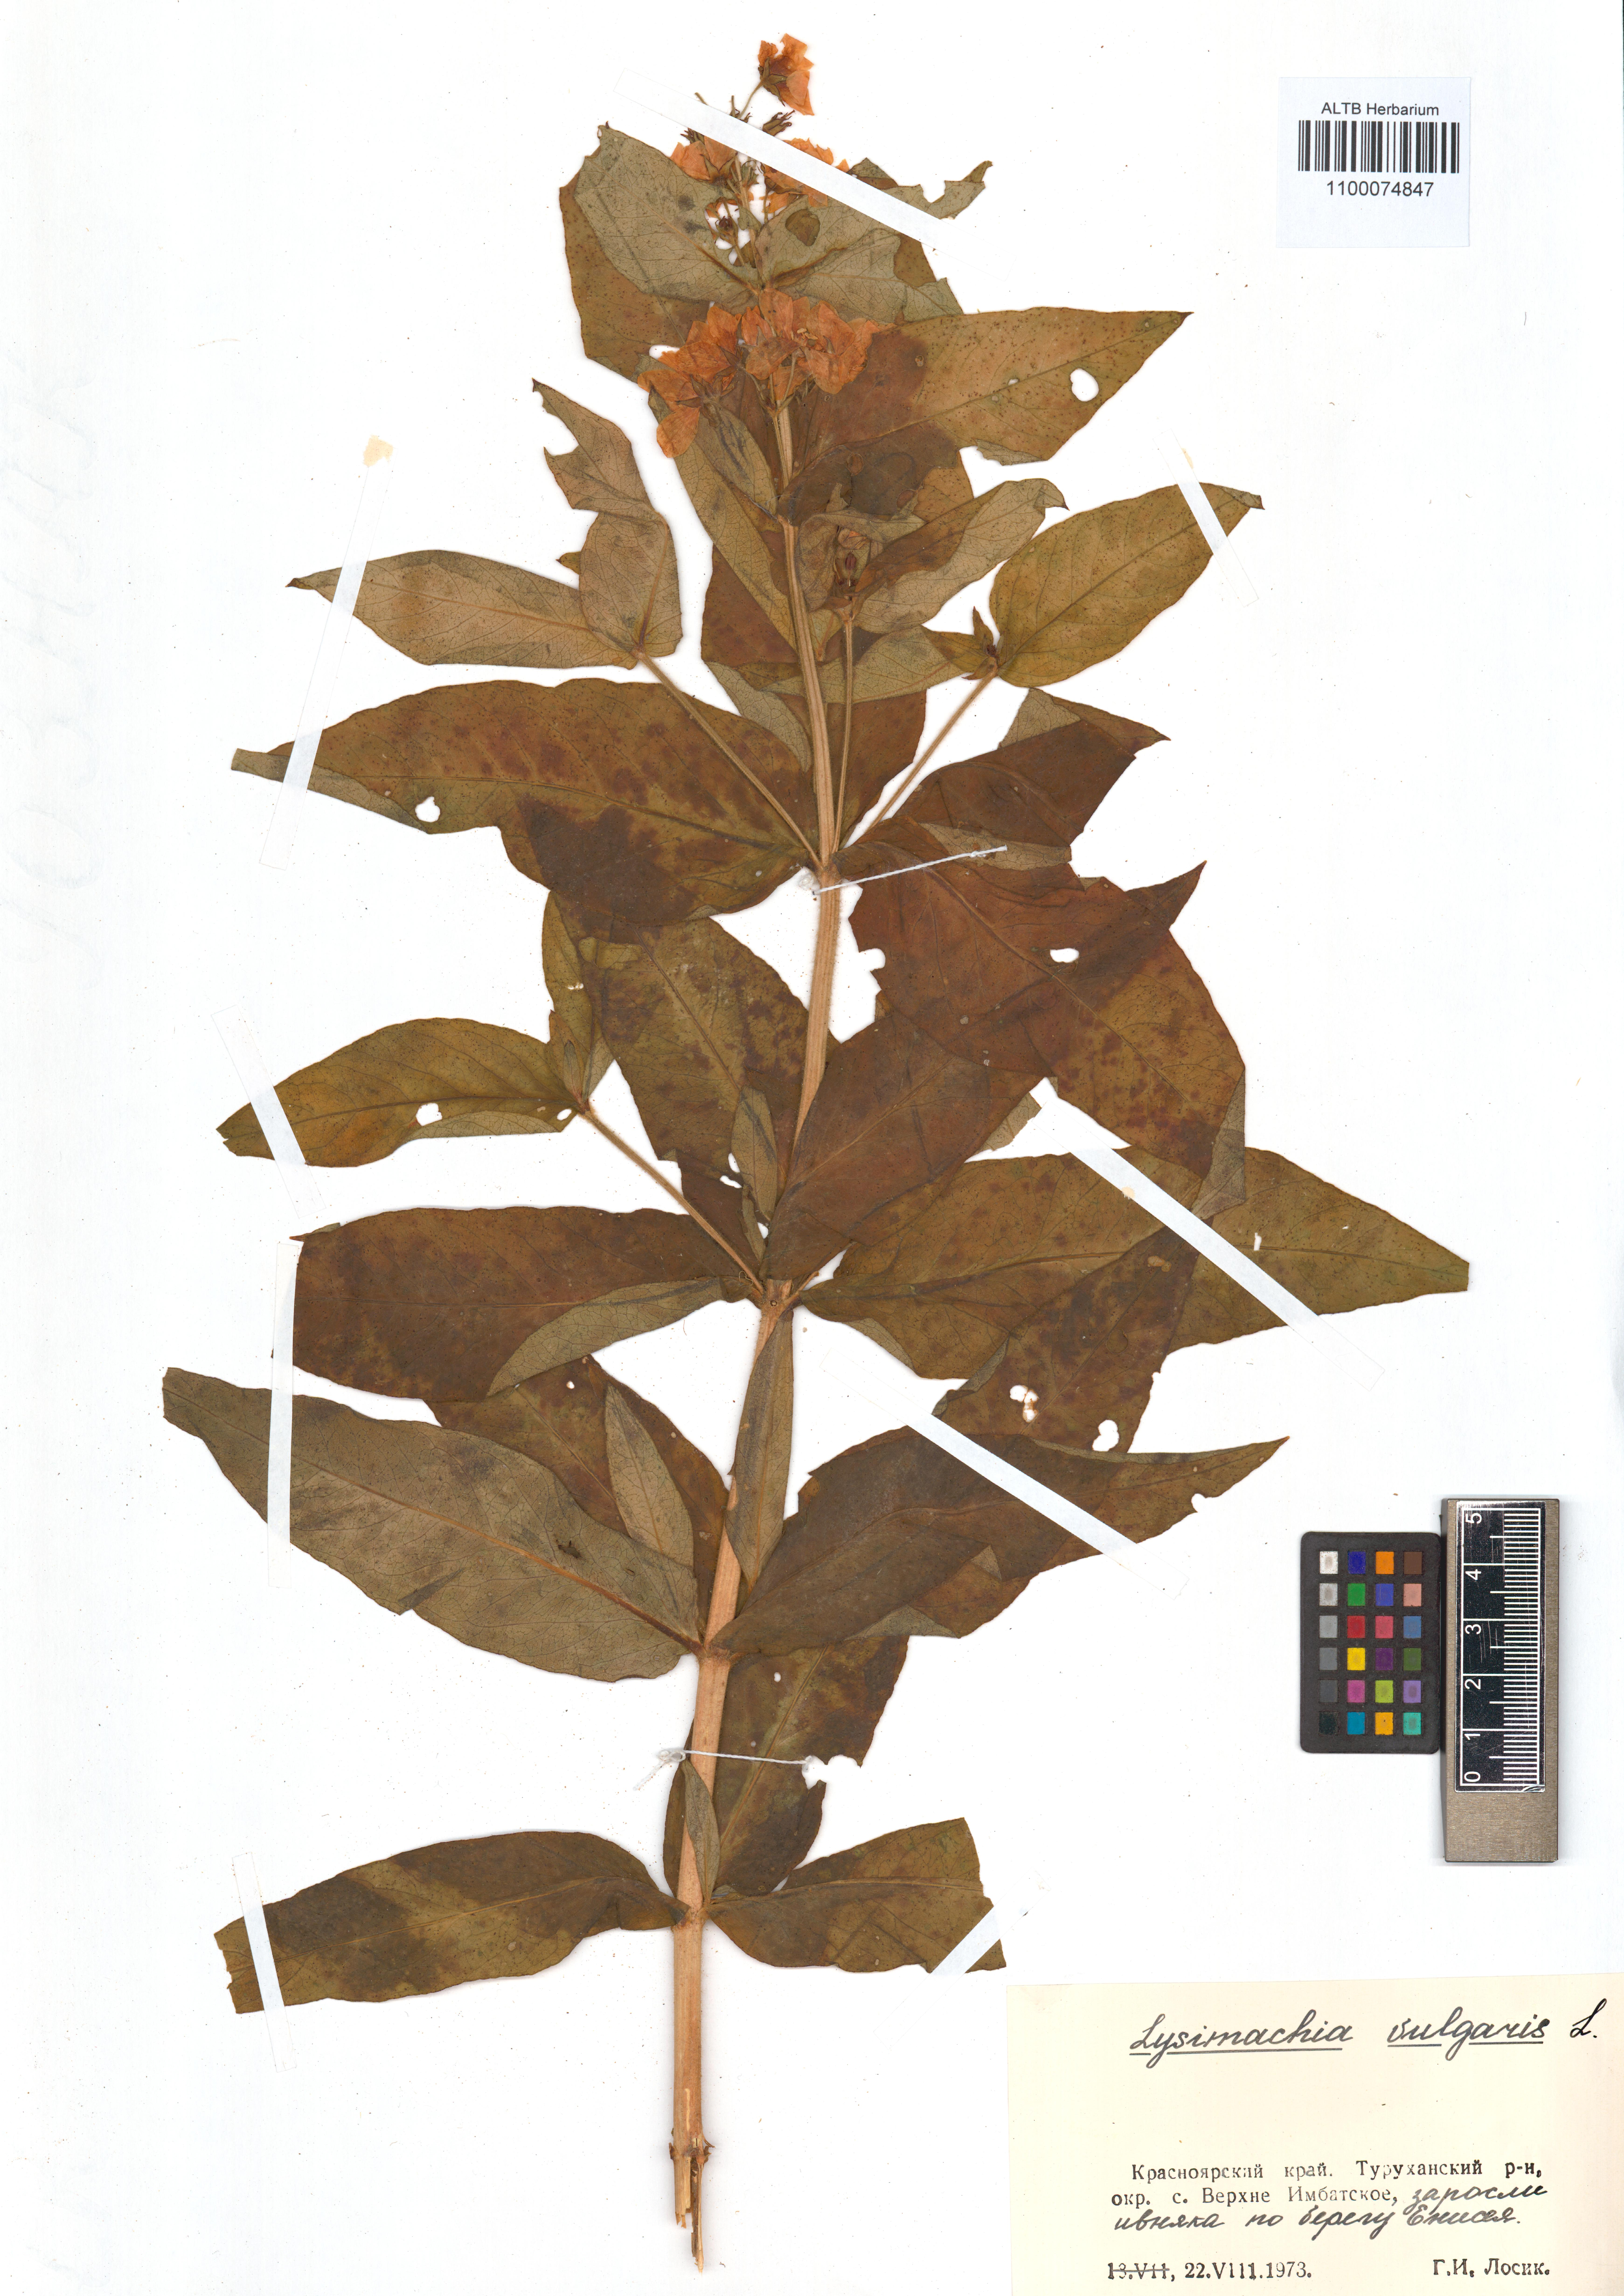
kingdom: Plantae
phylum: Tracheophyta
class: Magnoliopsida
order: Ericales
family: Primulaceae
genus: Lysimachia
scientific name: Lysimachia vulgaris
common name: Yellow loosestrife
